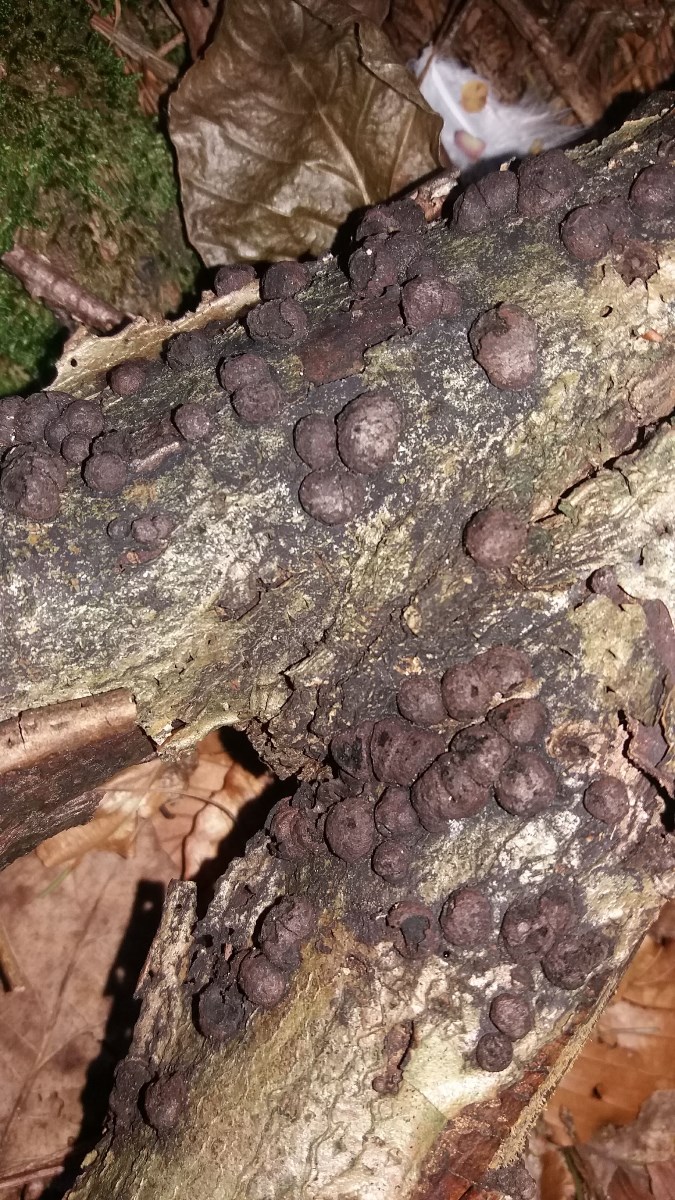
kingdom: Fungi
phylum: Ascomycota
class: Sordariomycetes
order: Xylariales
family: Hypoxylaceae
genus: Hypoxylon
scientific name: Hypoxylon fragiforme
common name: kuljordbær
